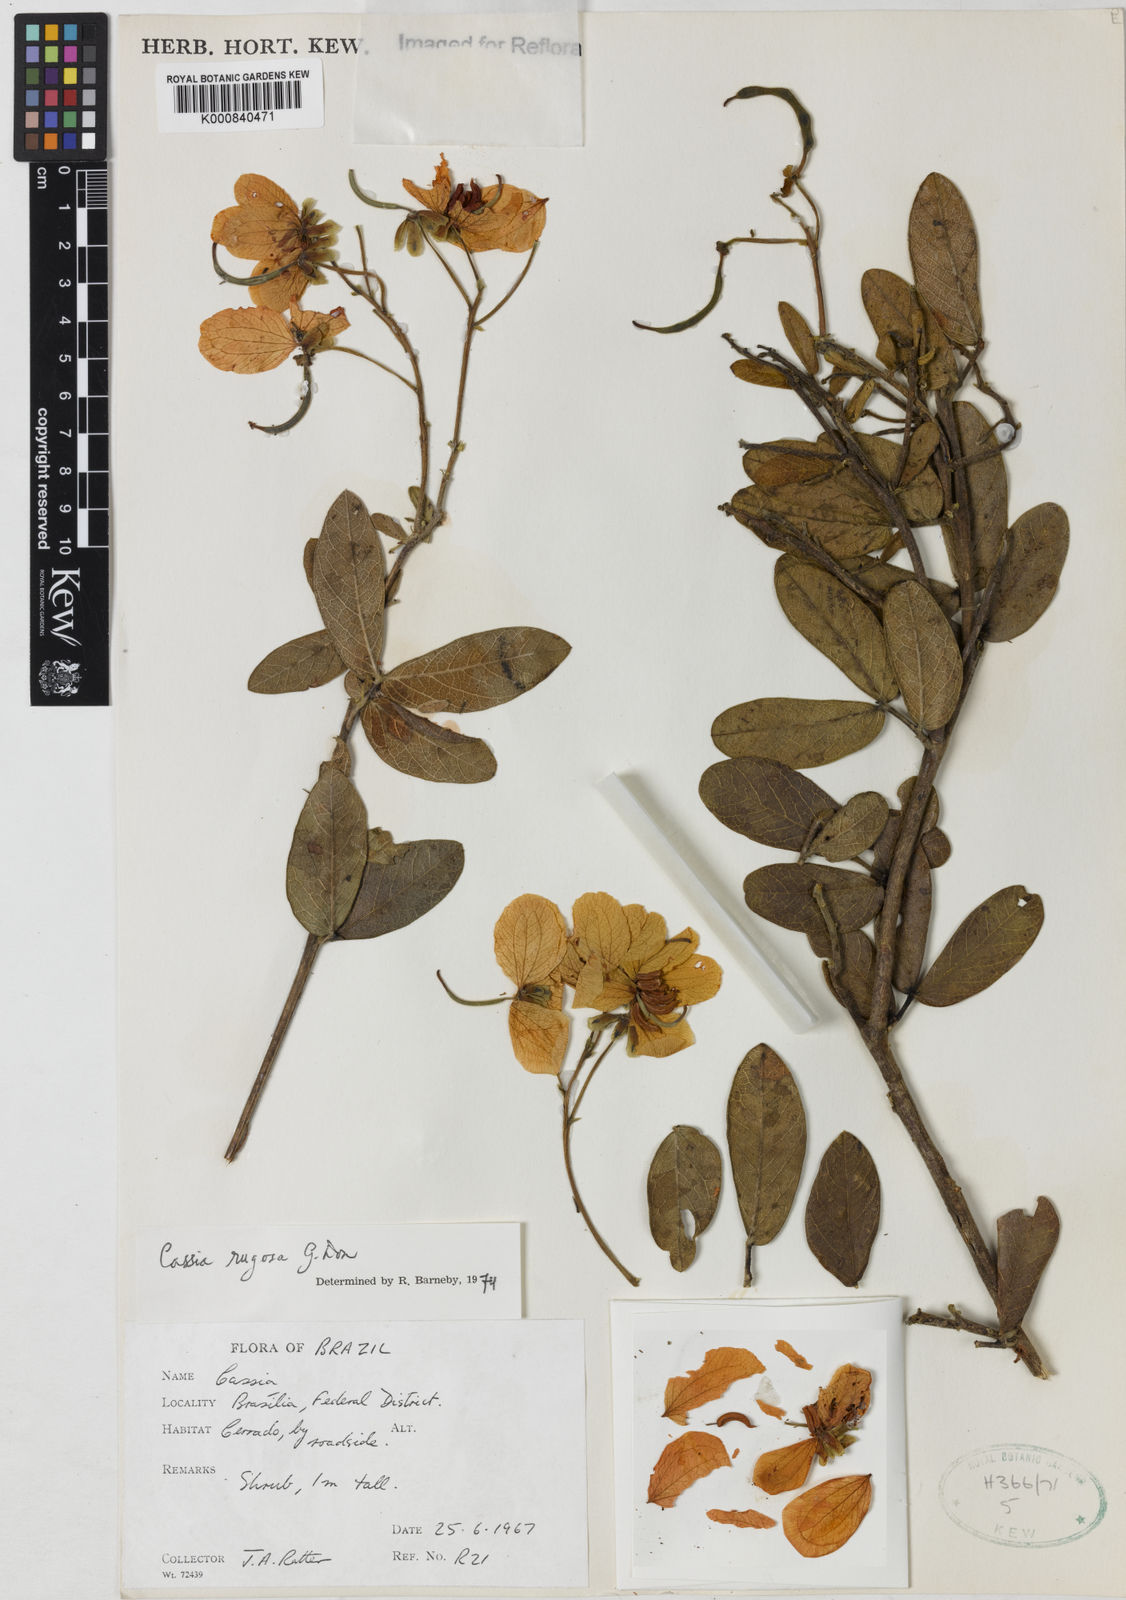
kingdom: Plantae
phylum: Tracheophyta
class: Magnoliopsida
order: Fabales
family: Fabaceae
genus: Senna
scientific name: Senna rugosa
